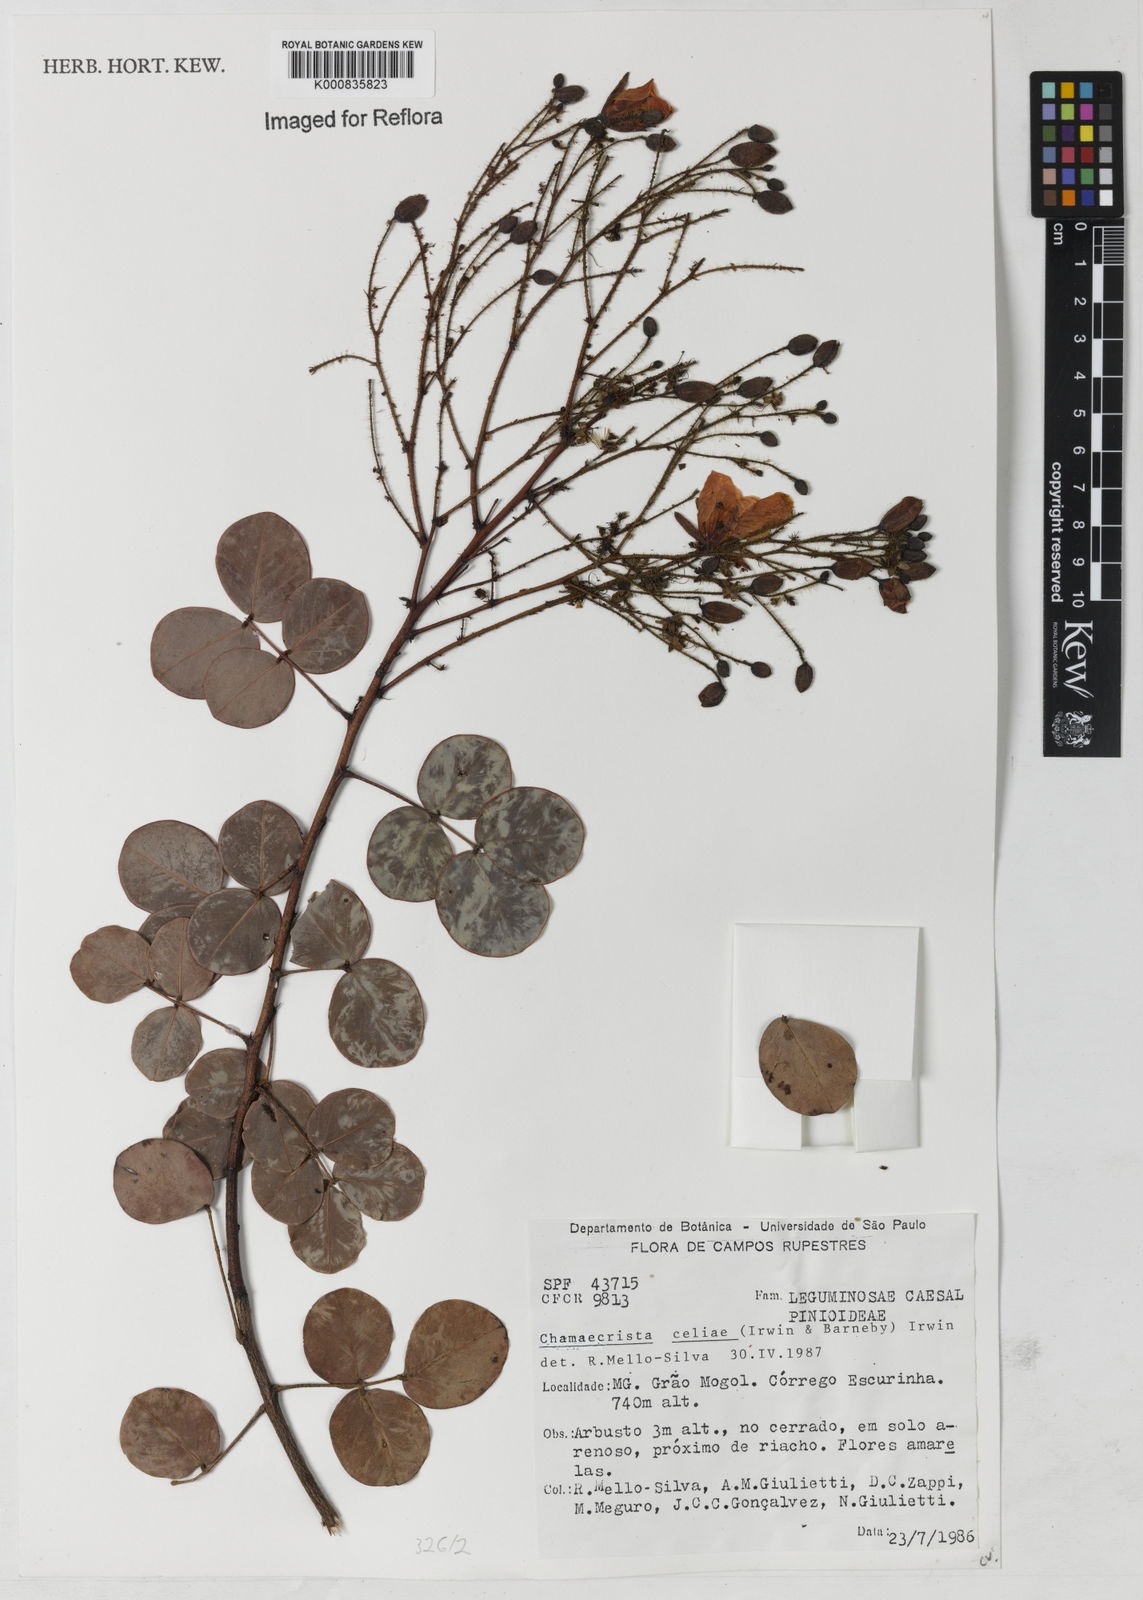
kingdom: Plantae
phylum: Tracheophyta
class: Magnoliopsida
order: Fabales
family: Fabaceae
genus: Chamaecrista
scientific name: Chamaecrista celiae
